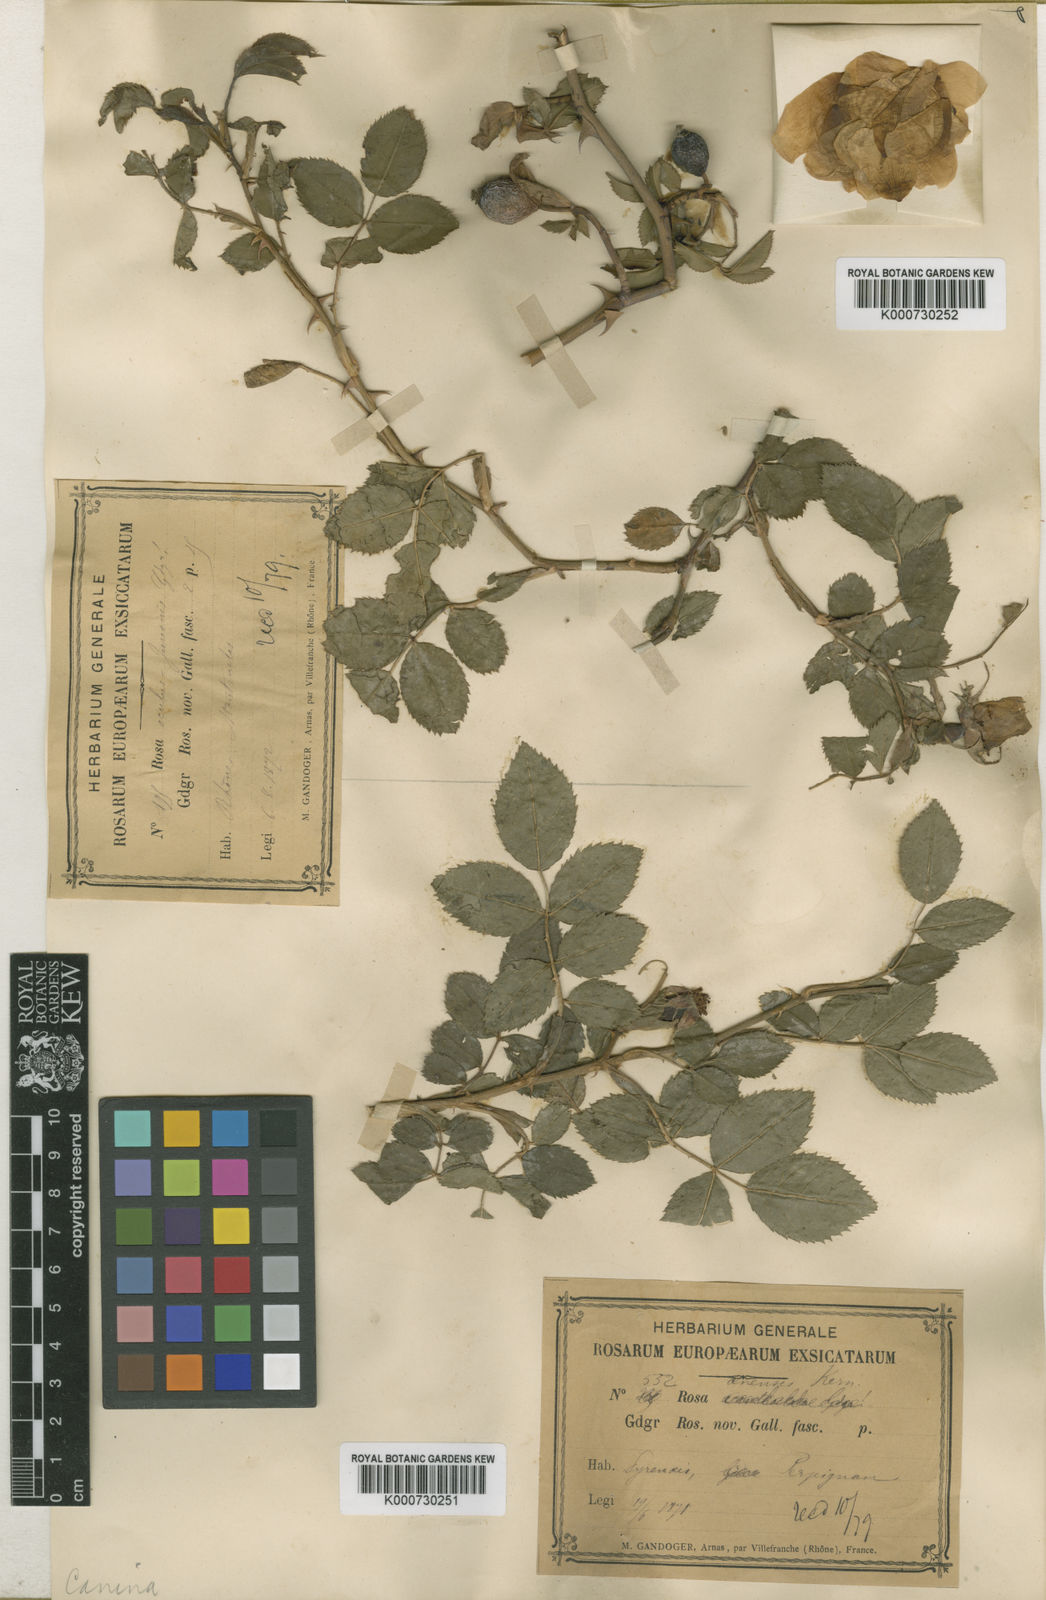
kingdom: Plantae
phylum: Tracheophyta
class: Magnoliopsida
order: Rosales
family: Rosaceae
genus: Rosa
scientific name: Rosa canina
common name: Dog rose
